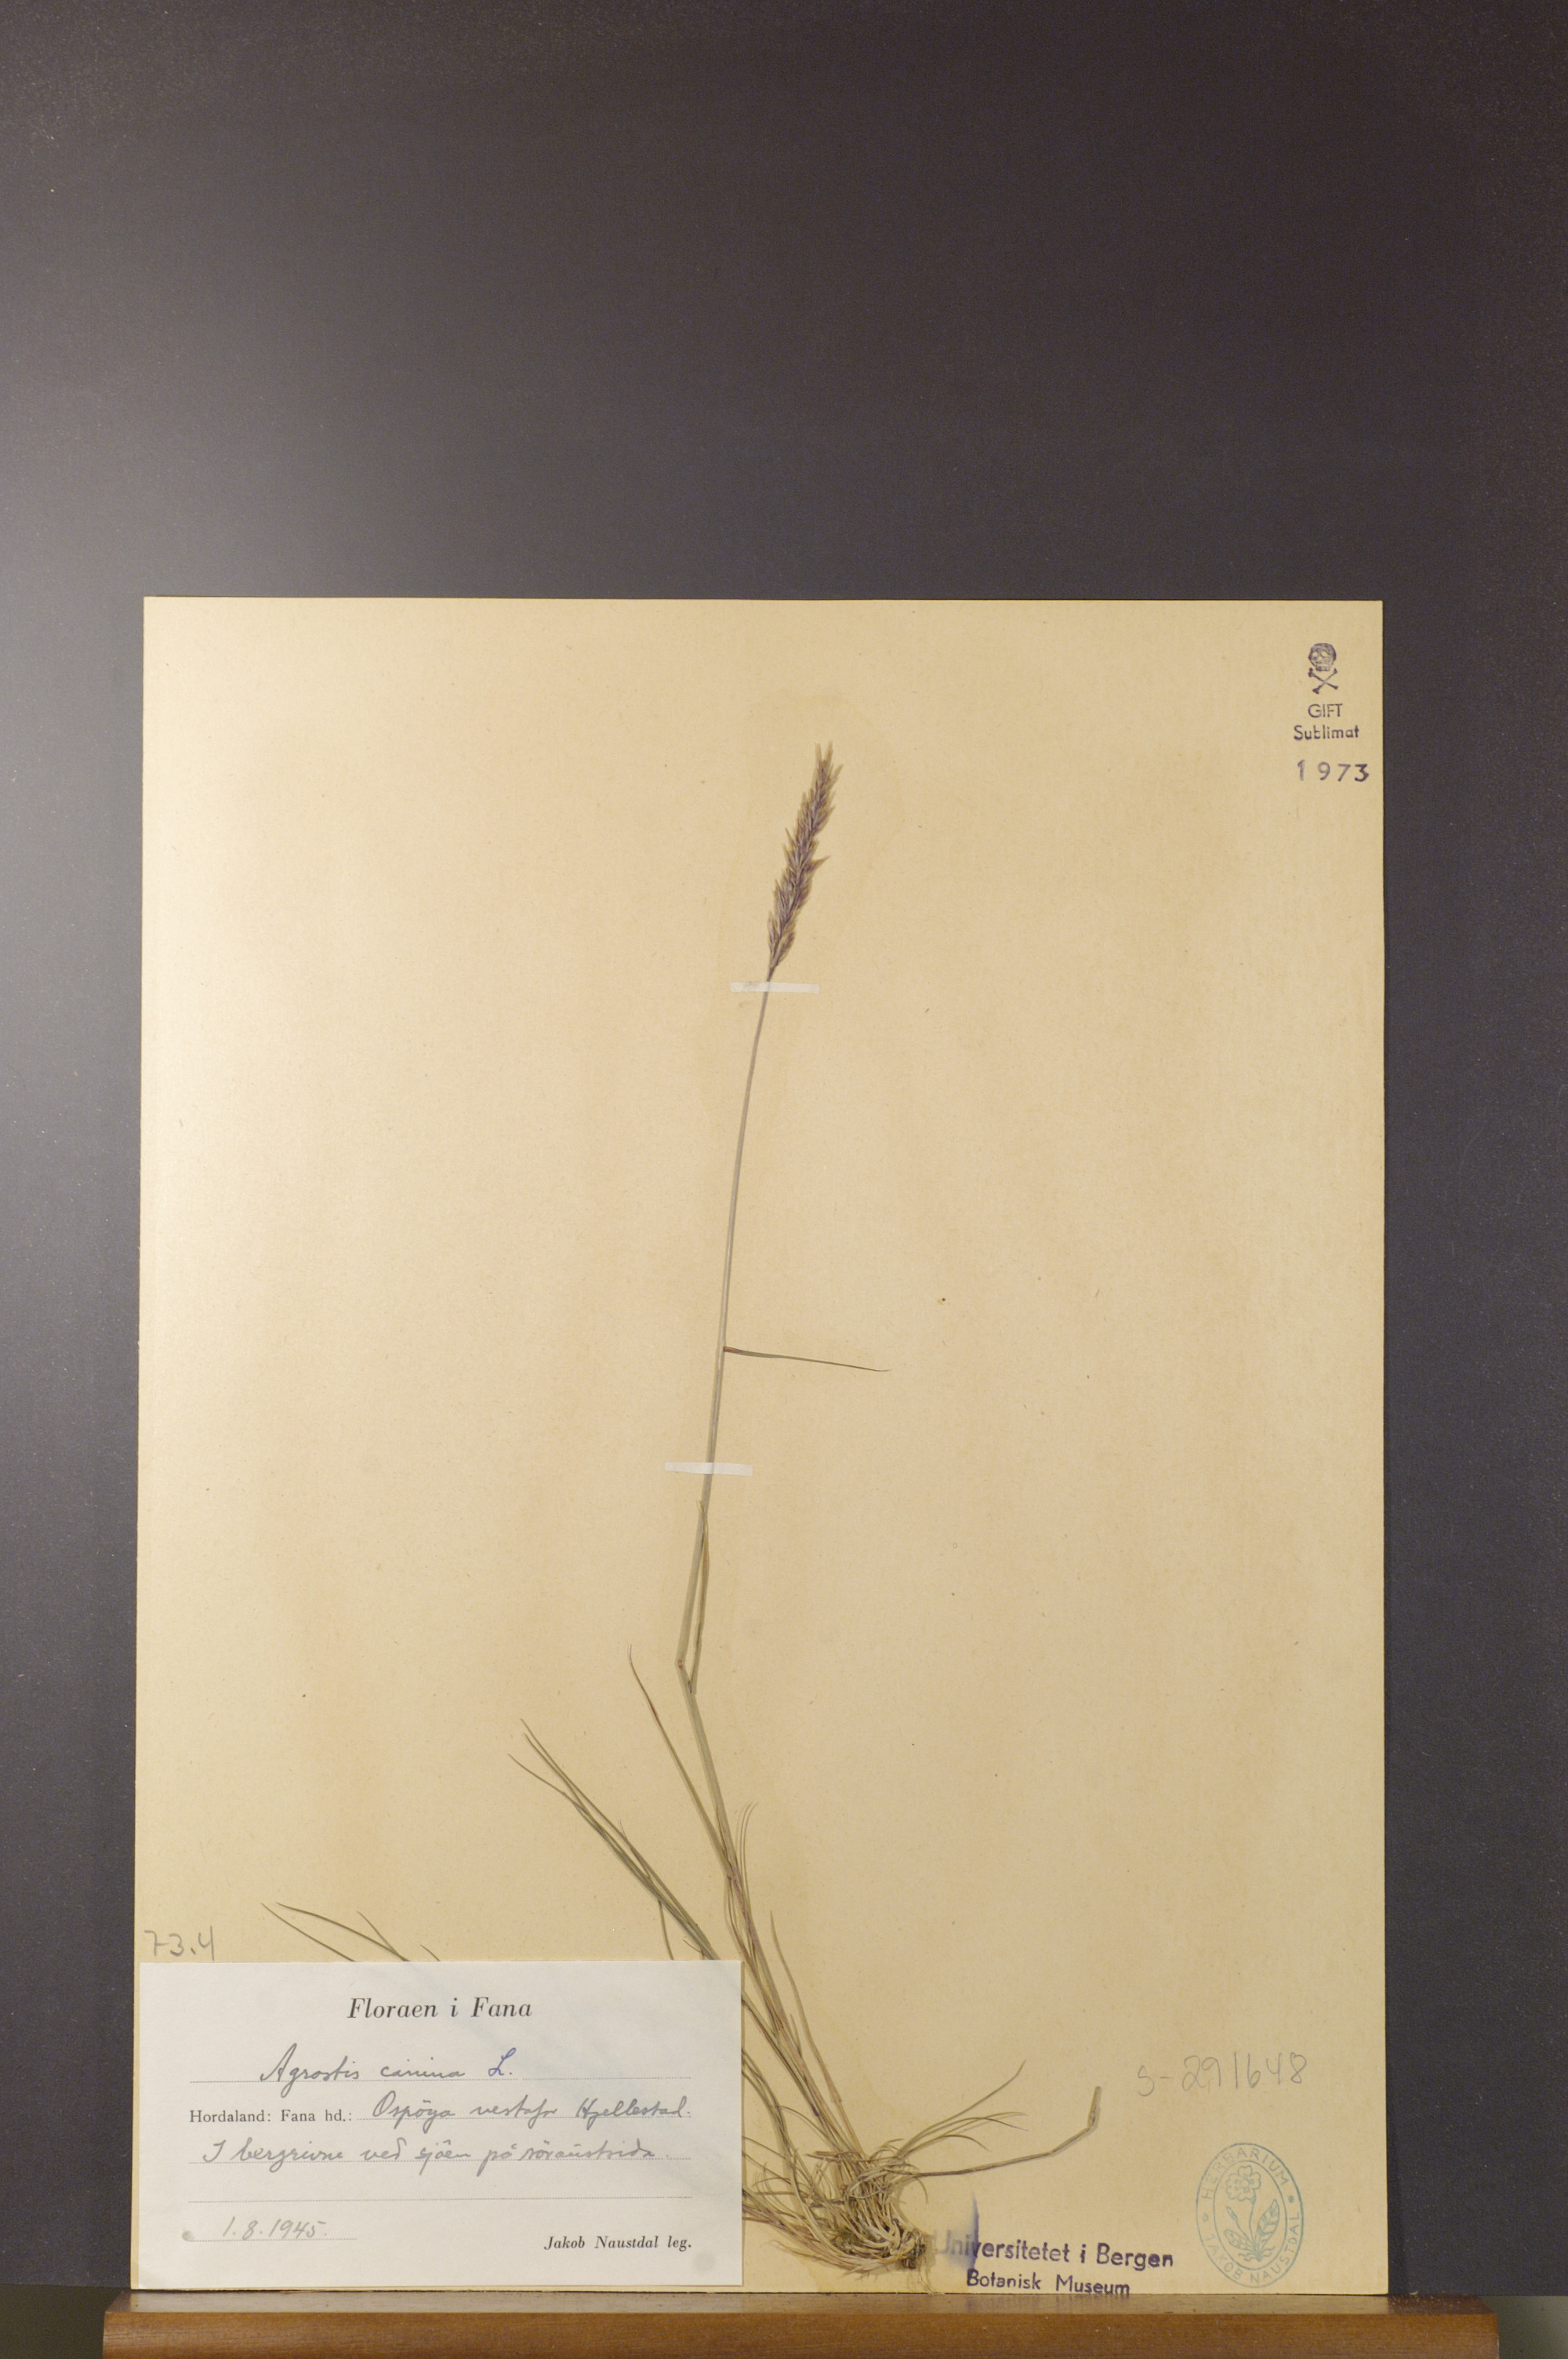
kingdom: Plantae
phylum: Tracheophyta
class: Liliopsida
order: Poales
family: Poaceae
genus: Agrostis
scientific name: Agrostis canina
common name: Velvet bent
